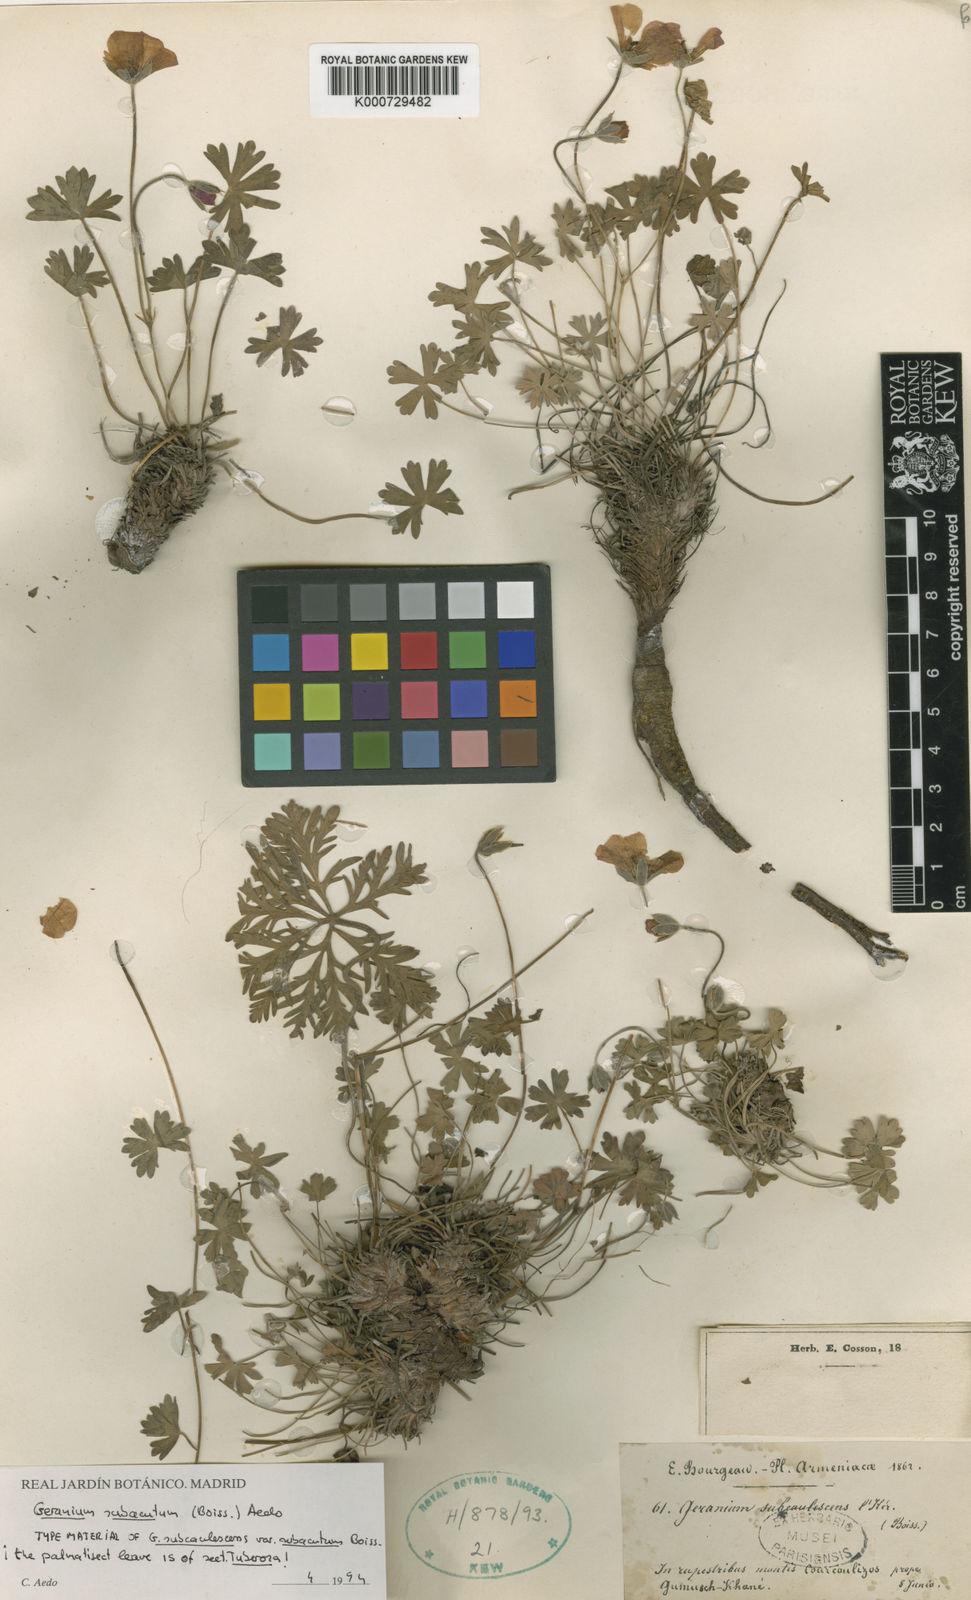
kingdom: Plantae
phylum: Tracheophyta
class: Magnoliopsida
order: Geraniales
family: Geraniaceae
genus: Geranium
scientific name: Geranium subacutum
